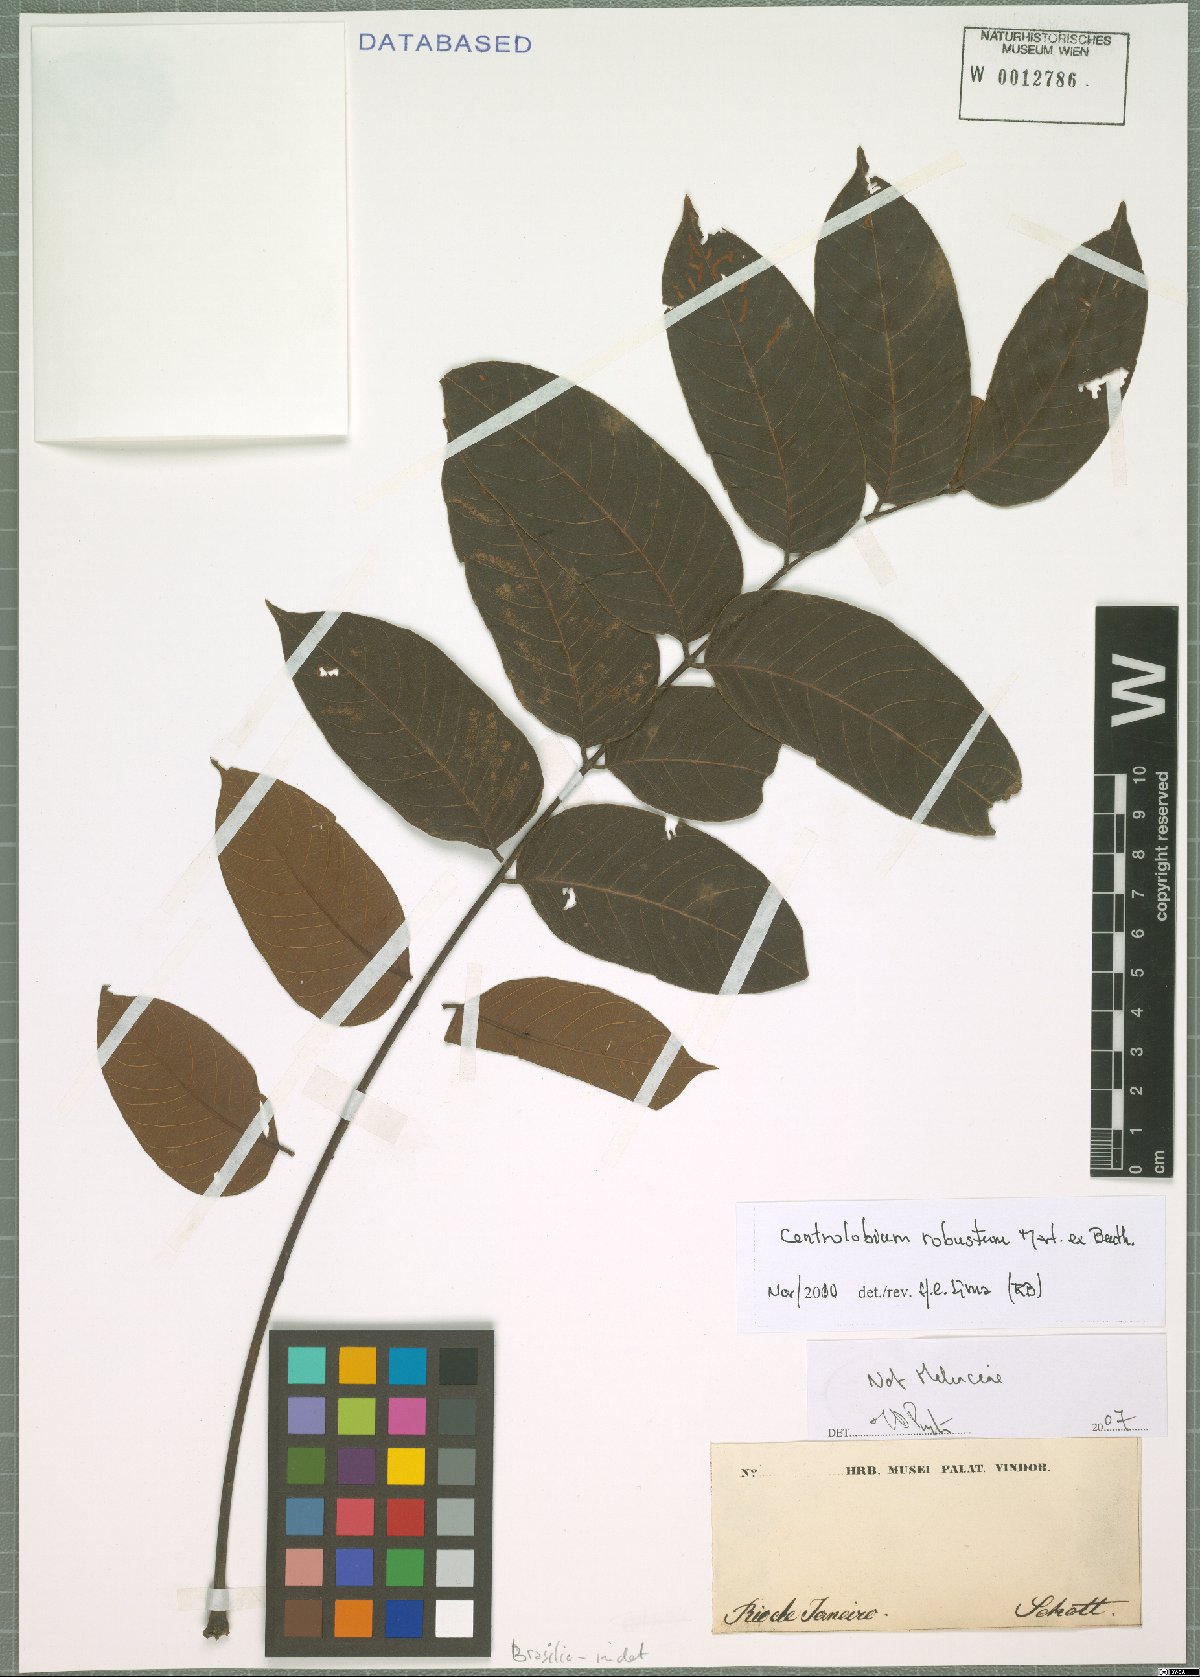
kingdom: Plantae
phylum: Tracheophyta
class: Magnoliopsida
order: Fabales
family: Fabaceae
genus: Centrolobium
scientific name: Centrolobium robustum
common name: Zebrawood
